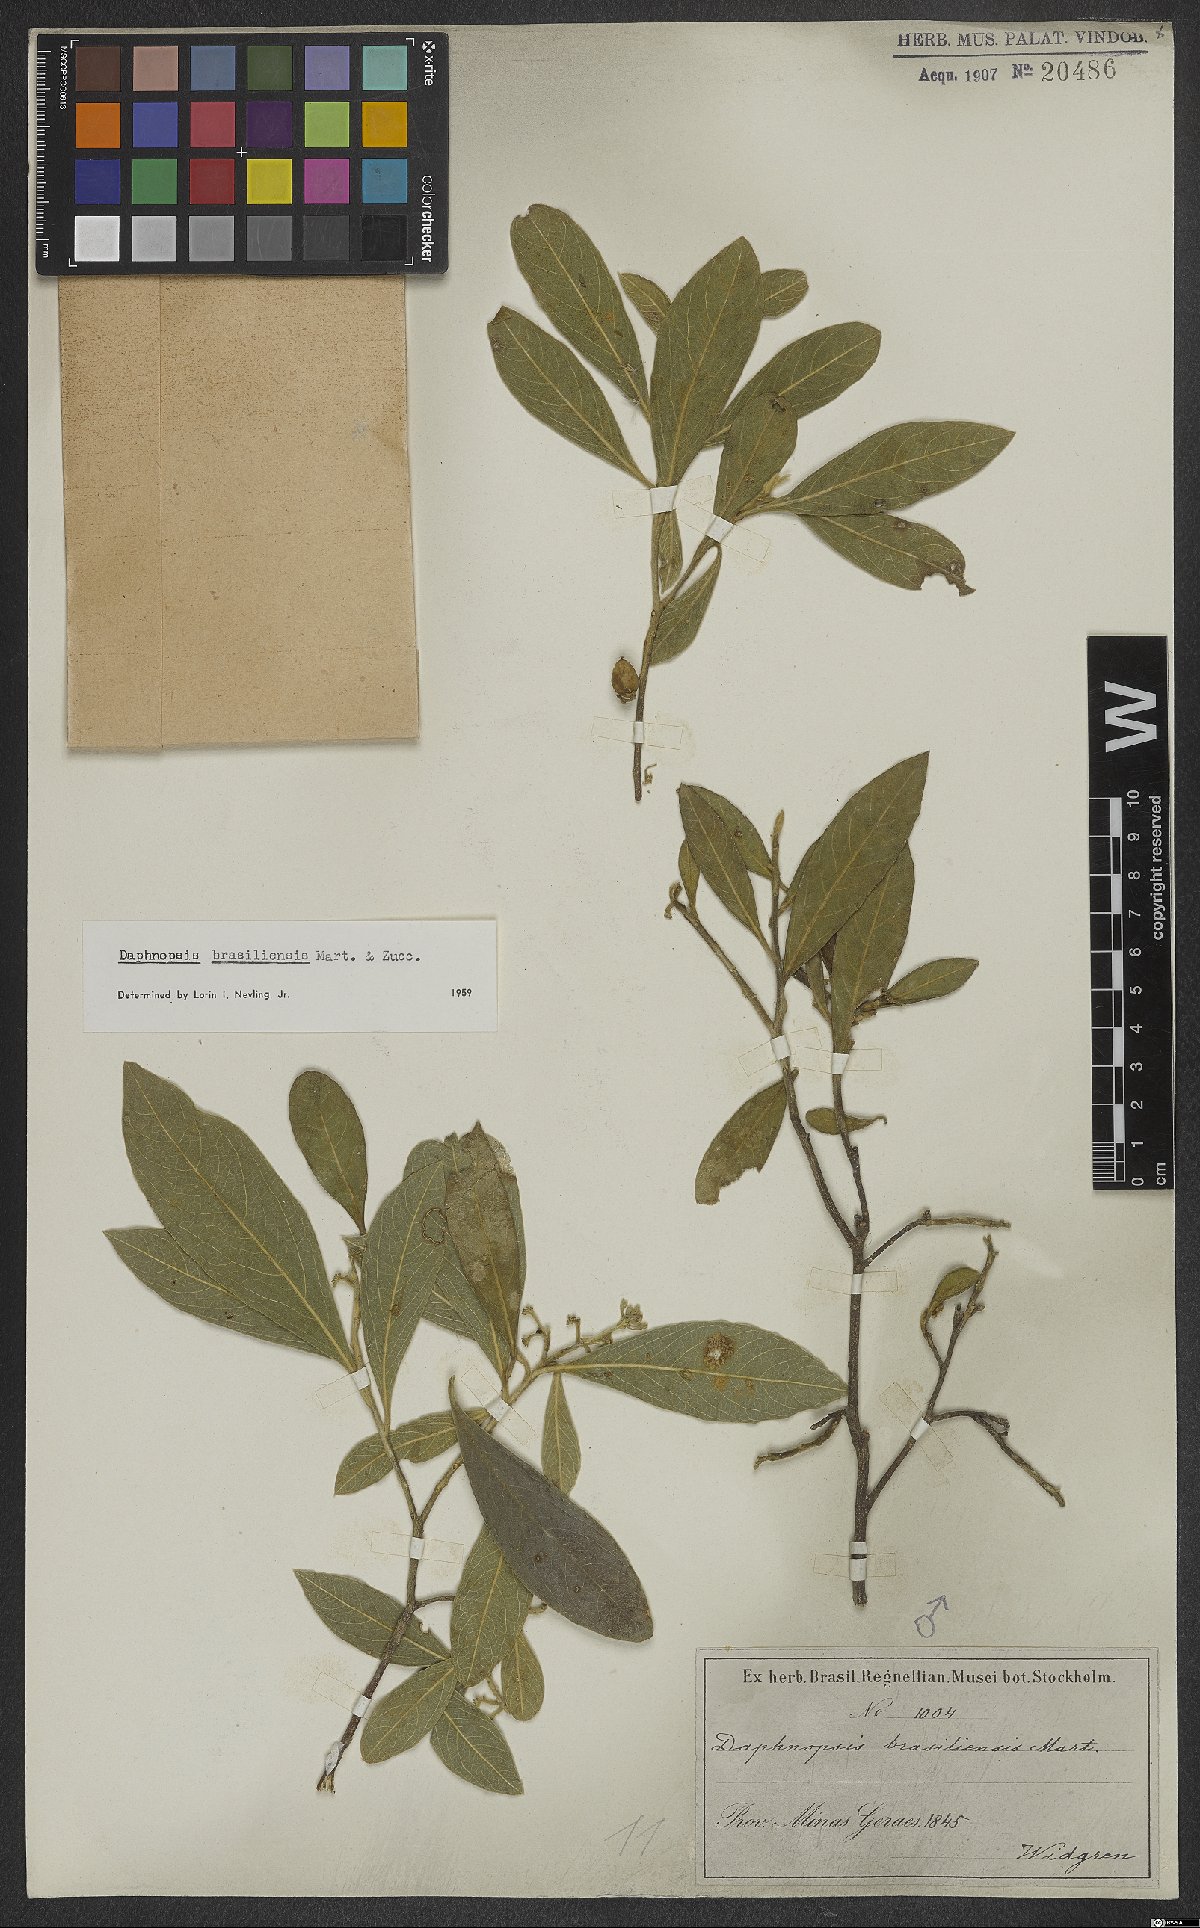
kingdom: Plantae
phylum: Tracheophyta
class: Magnoliopsida
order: Malvales
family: Thymelaeaceae
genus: Daphnopsis
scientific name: Daphnopsis brasiliensis
